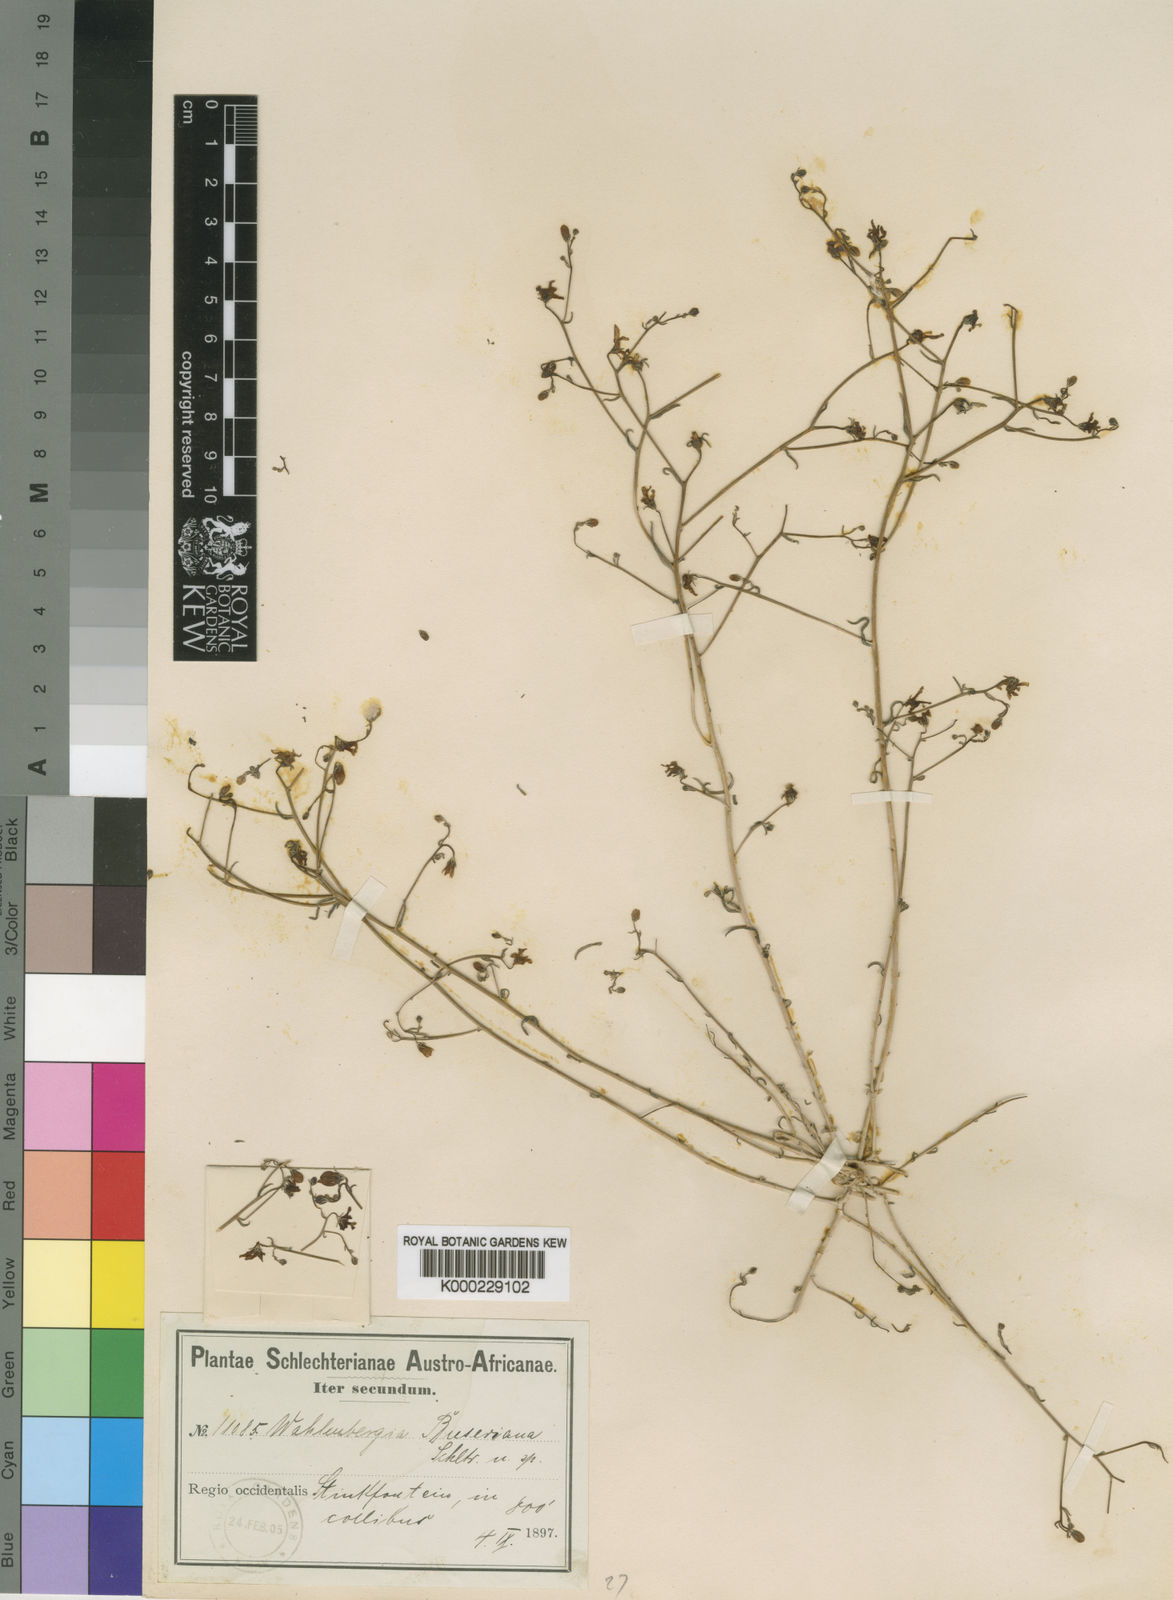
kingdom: Plantae
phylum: Tracheophyta
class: Magnoliopsida
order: Asterales
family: Campanulaceae
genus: Wahlenbergia
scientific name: Wahlenbergia buseriana
